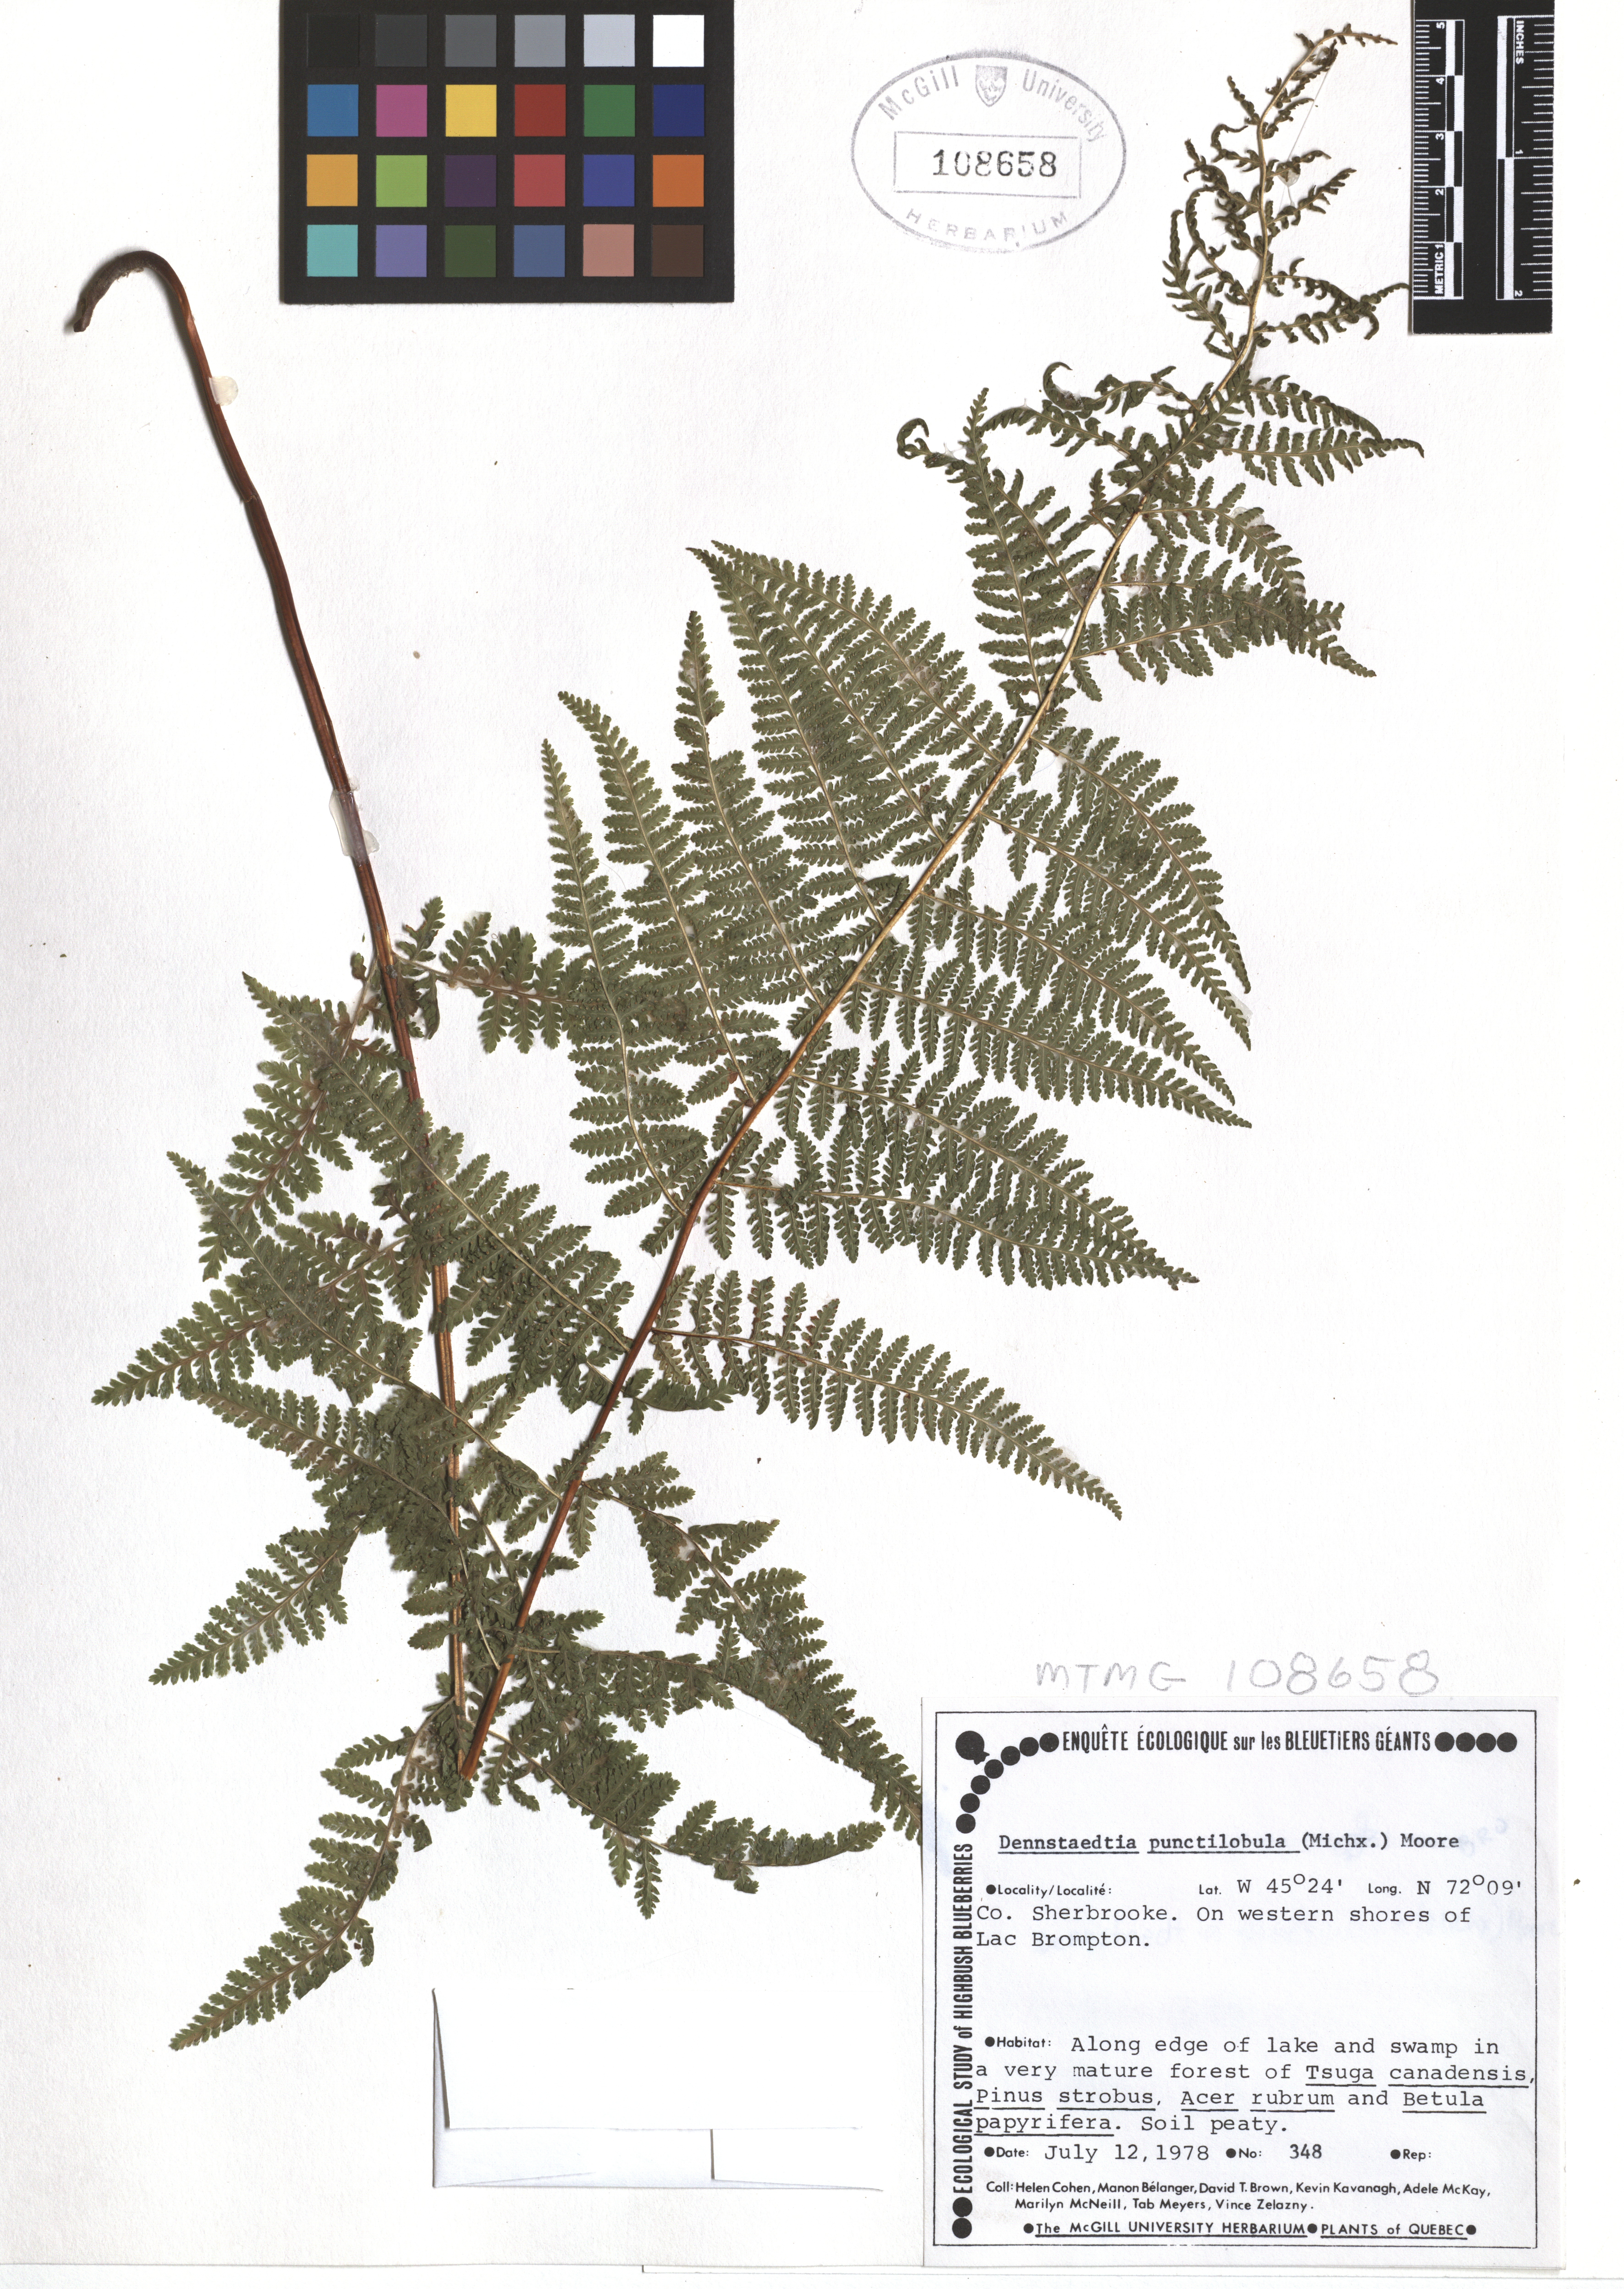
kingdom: Plantae
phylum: Tracheophyta
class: Polypodiopsida
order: Polypodiales
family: Dennstaedtiaceae
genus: Sitobolium
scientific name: Sitobolium punctilobum
